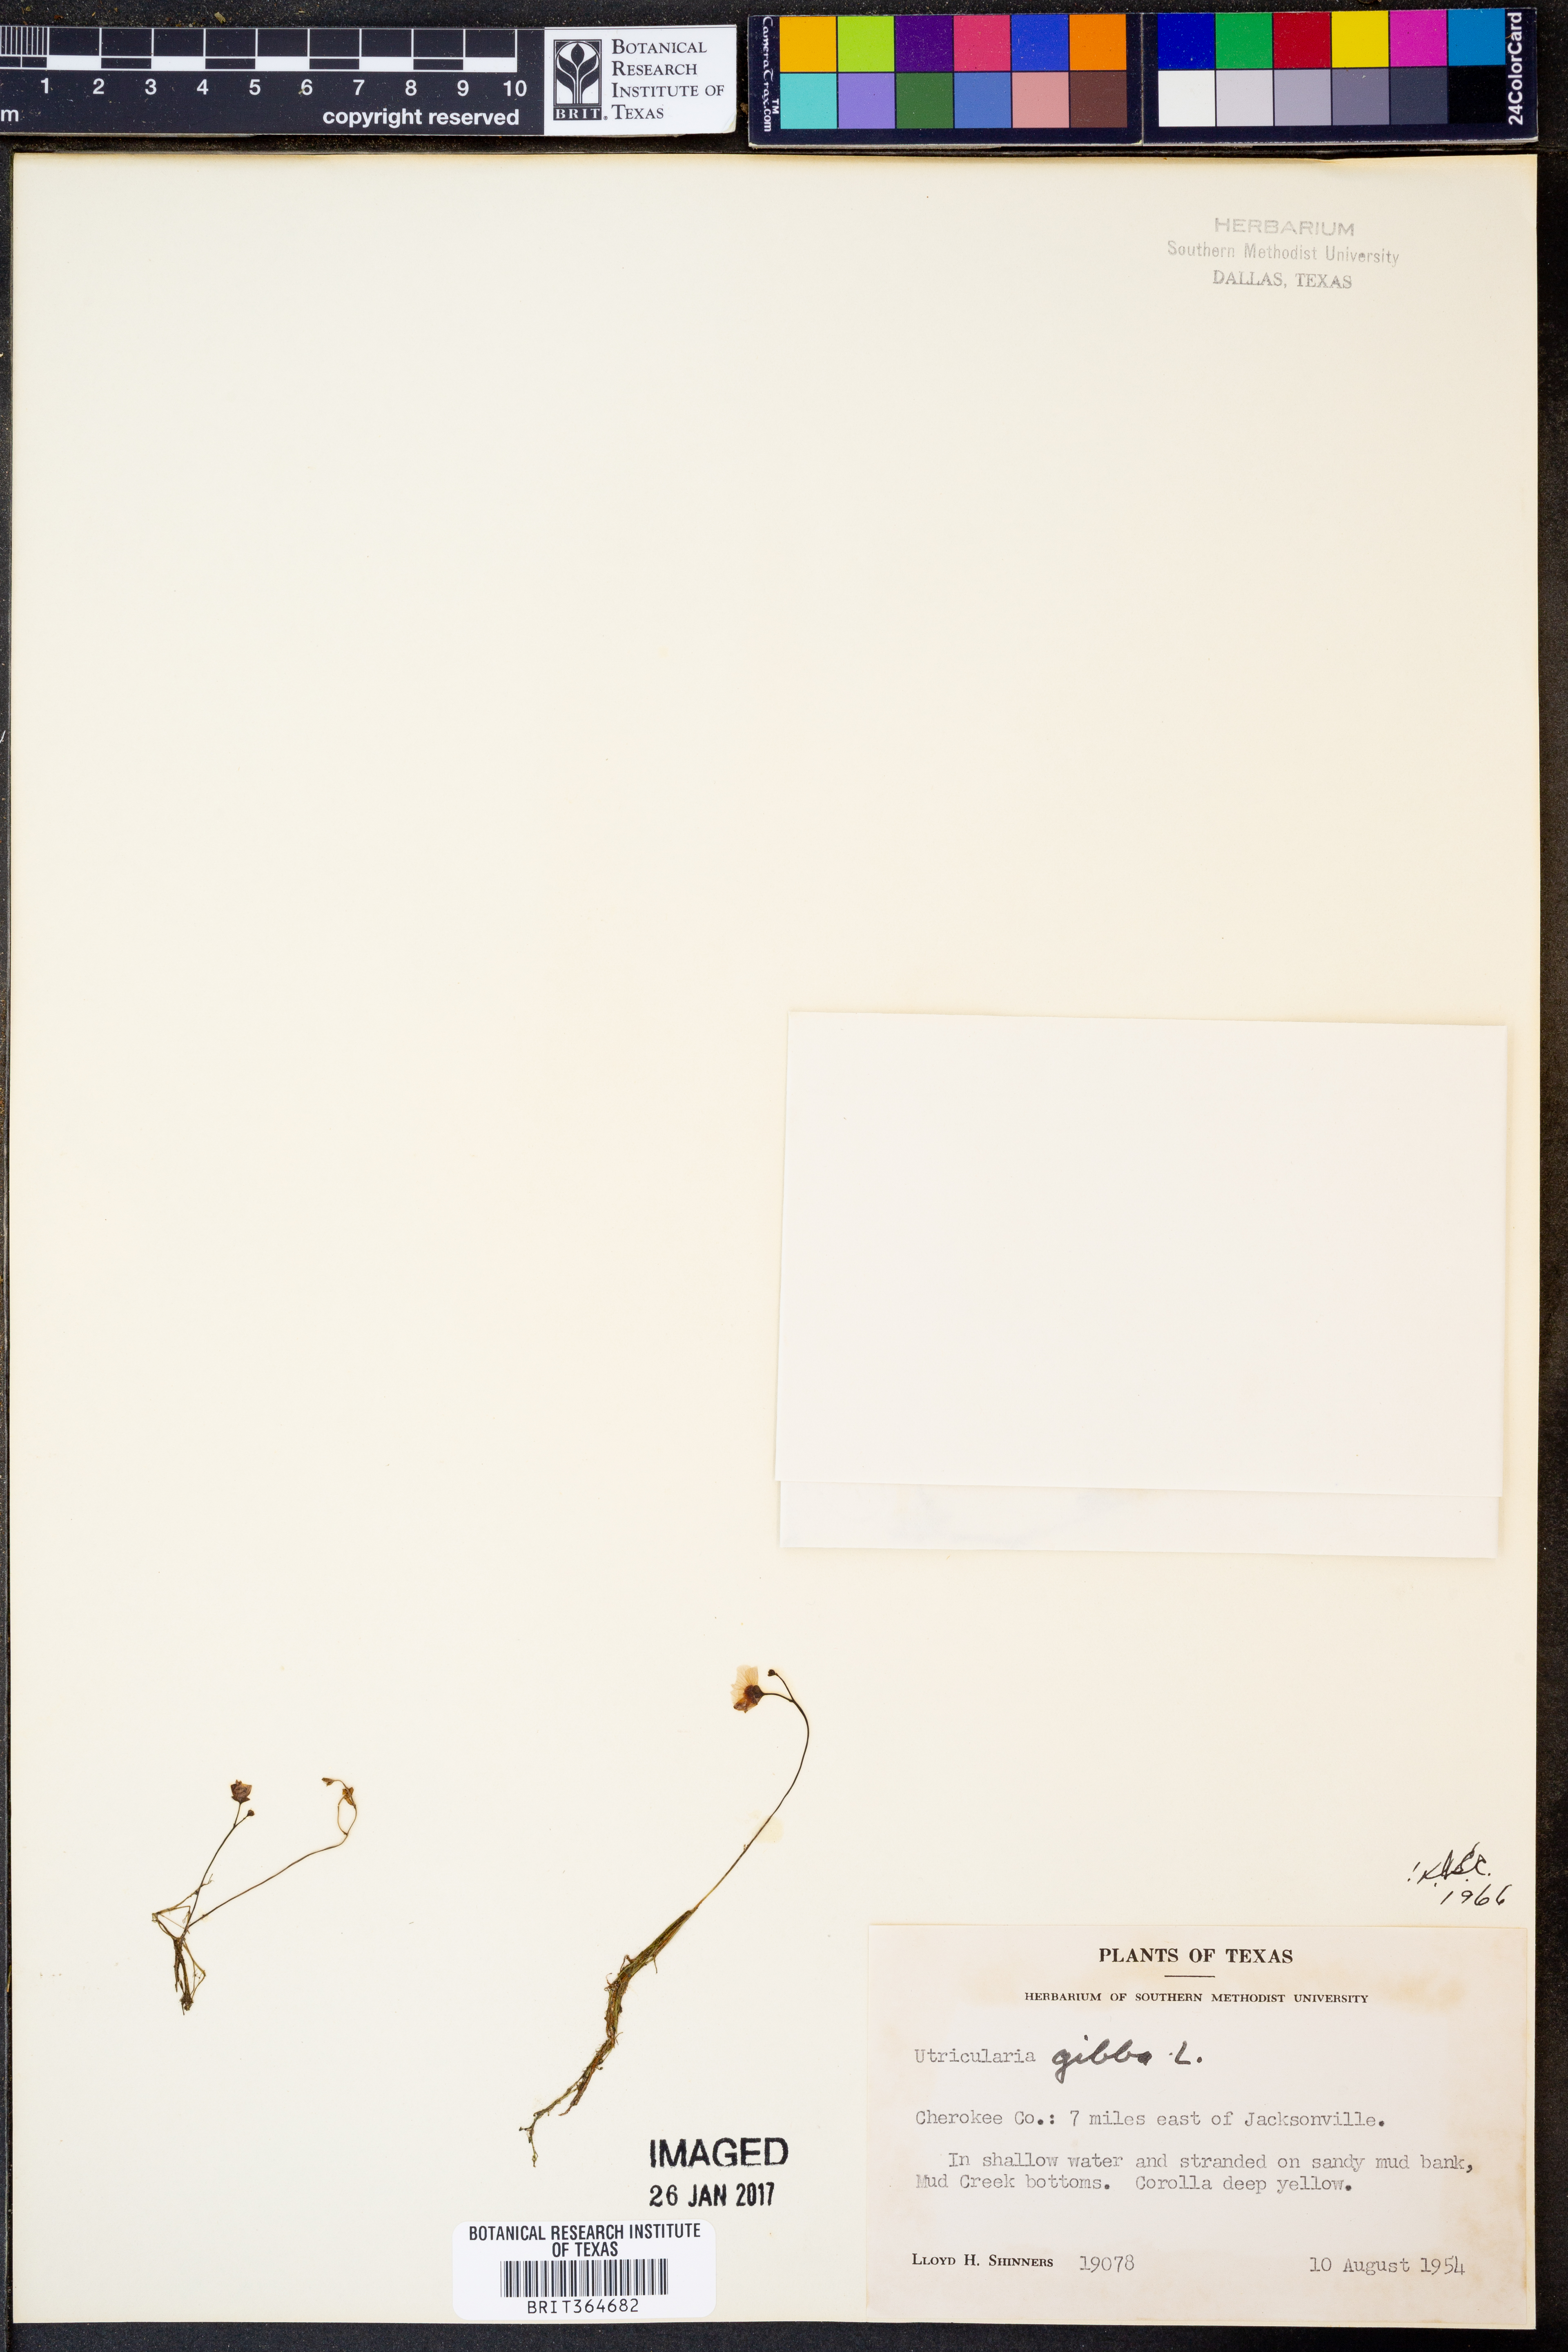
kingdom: Plantae
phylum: Tracheophyta
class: Magnoliopsida
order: Lamiales
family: Lentibulariaceae
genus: Utricularia
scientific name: Utricularia gibba
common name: Humped bladderwort
